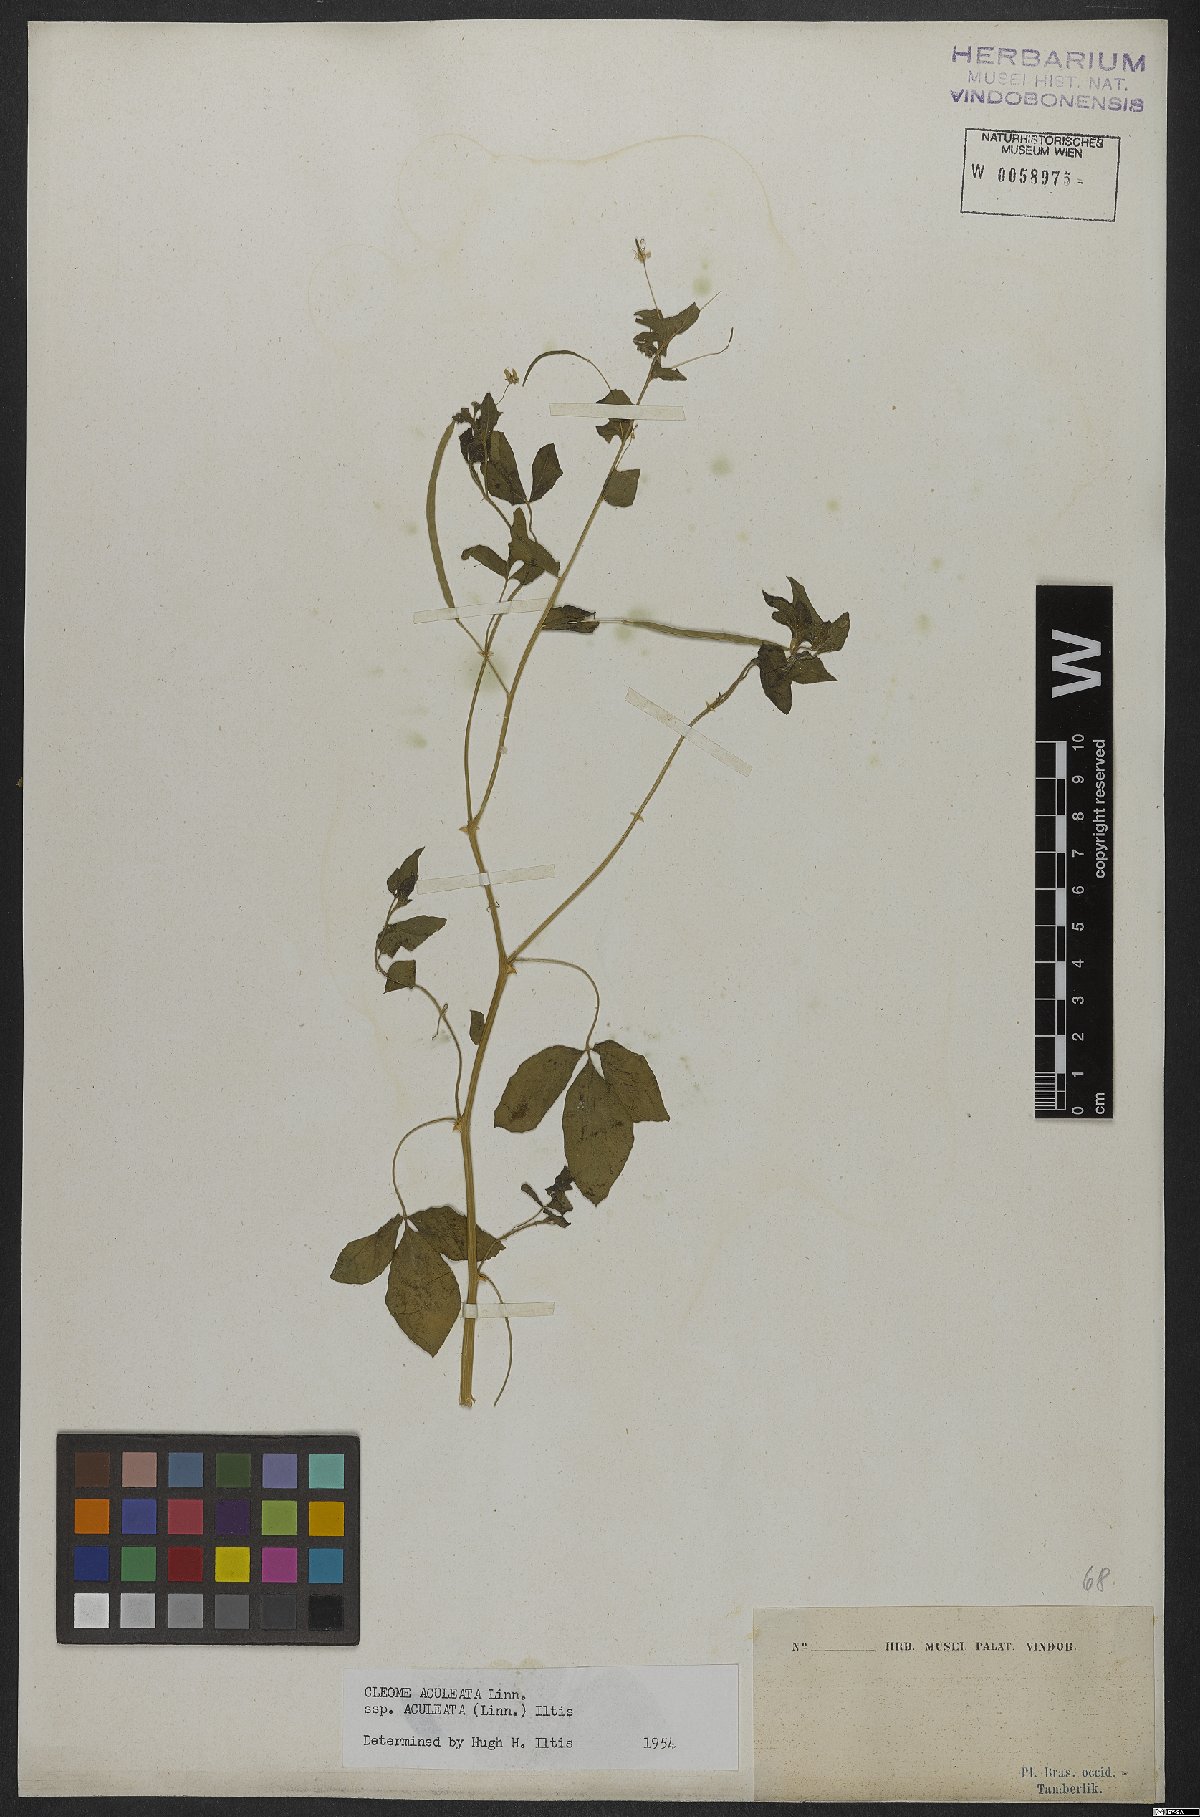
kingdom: Plantae
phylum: Tracheophyta
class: Magnoliopsida
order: Brassicales
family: Cleomaceae
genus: Tarenaya
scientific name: Tarenaya aculeata
